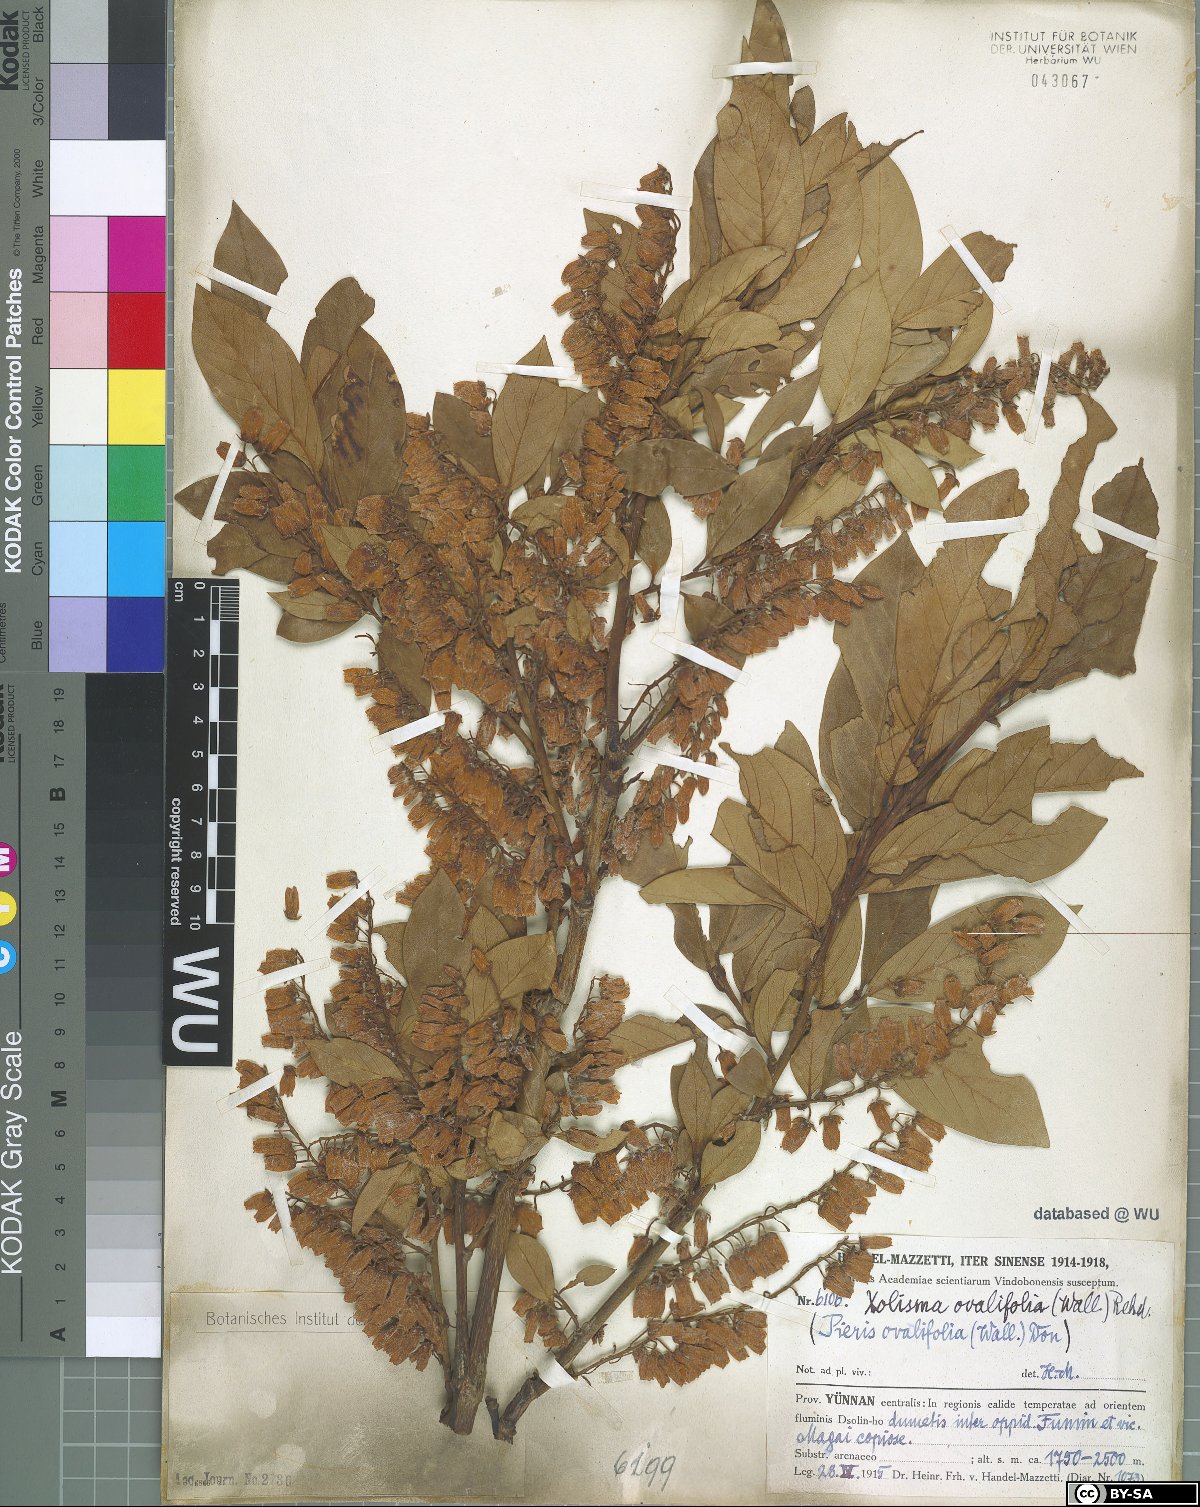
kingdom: Plantae
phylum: Tracheophyta
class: Magnoliopsida
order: Ericales
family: Ericaceae
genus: Lyonia
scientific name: Lyonia ovalifolia
